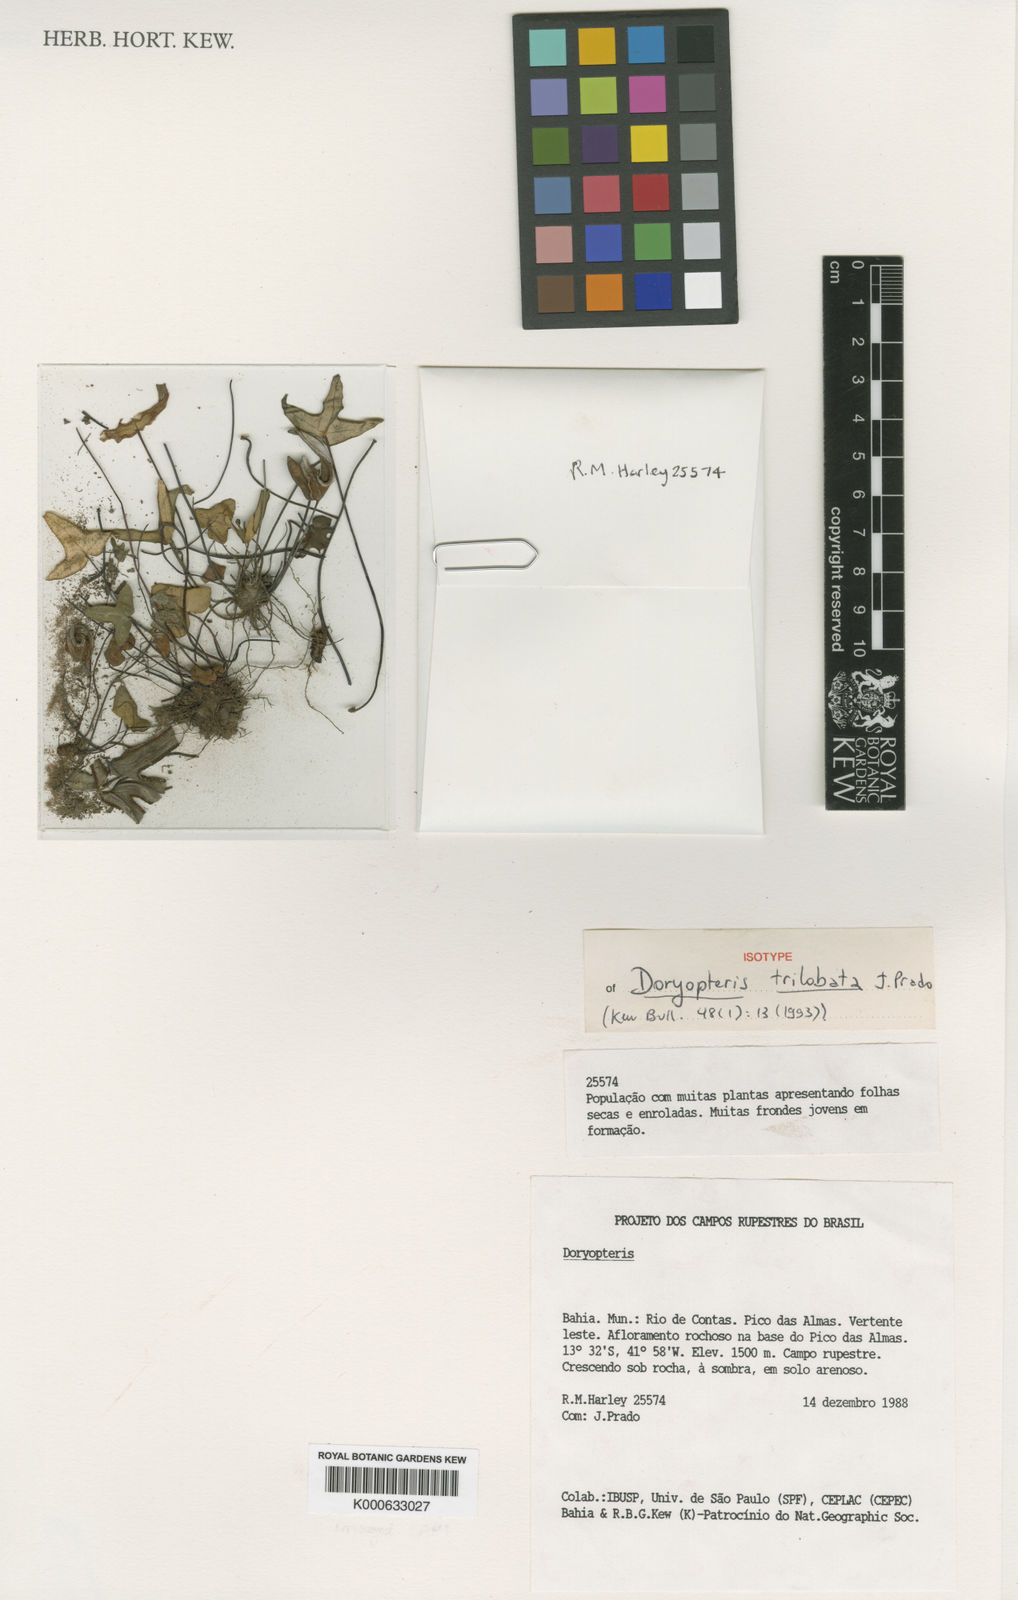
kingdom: Plantae
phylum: Tracheophyta
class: Polypodiopsida
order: Polypodiales
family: Pteridaceae
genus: Doryopteris
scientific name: Doryopteris trilobata
